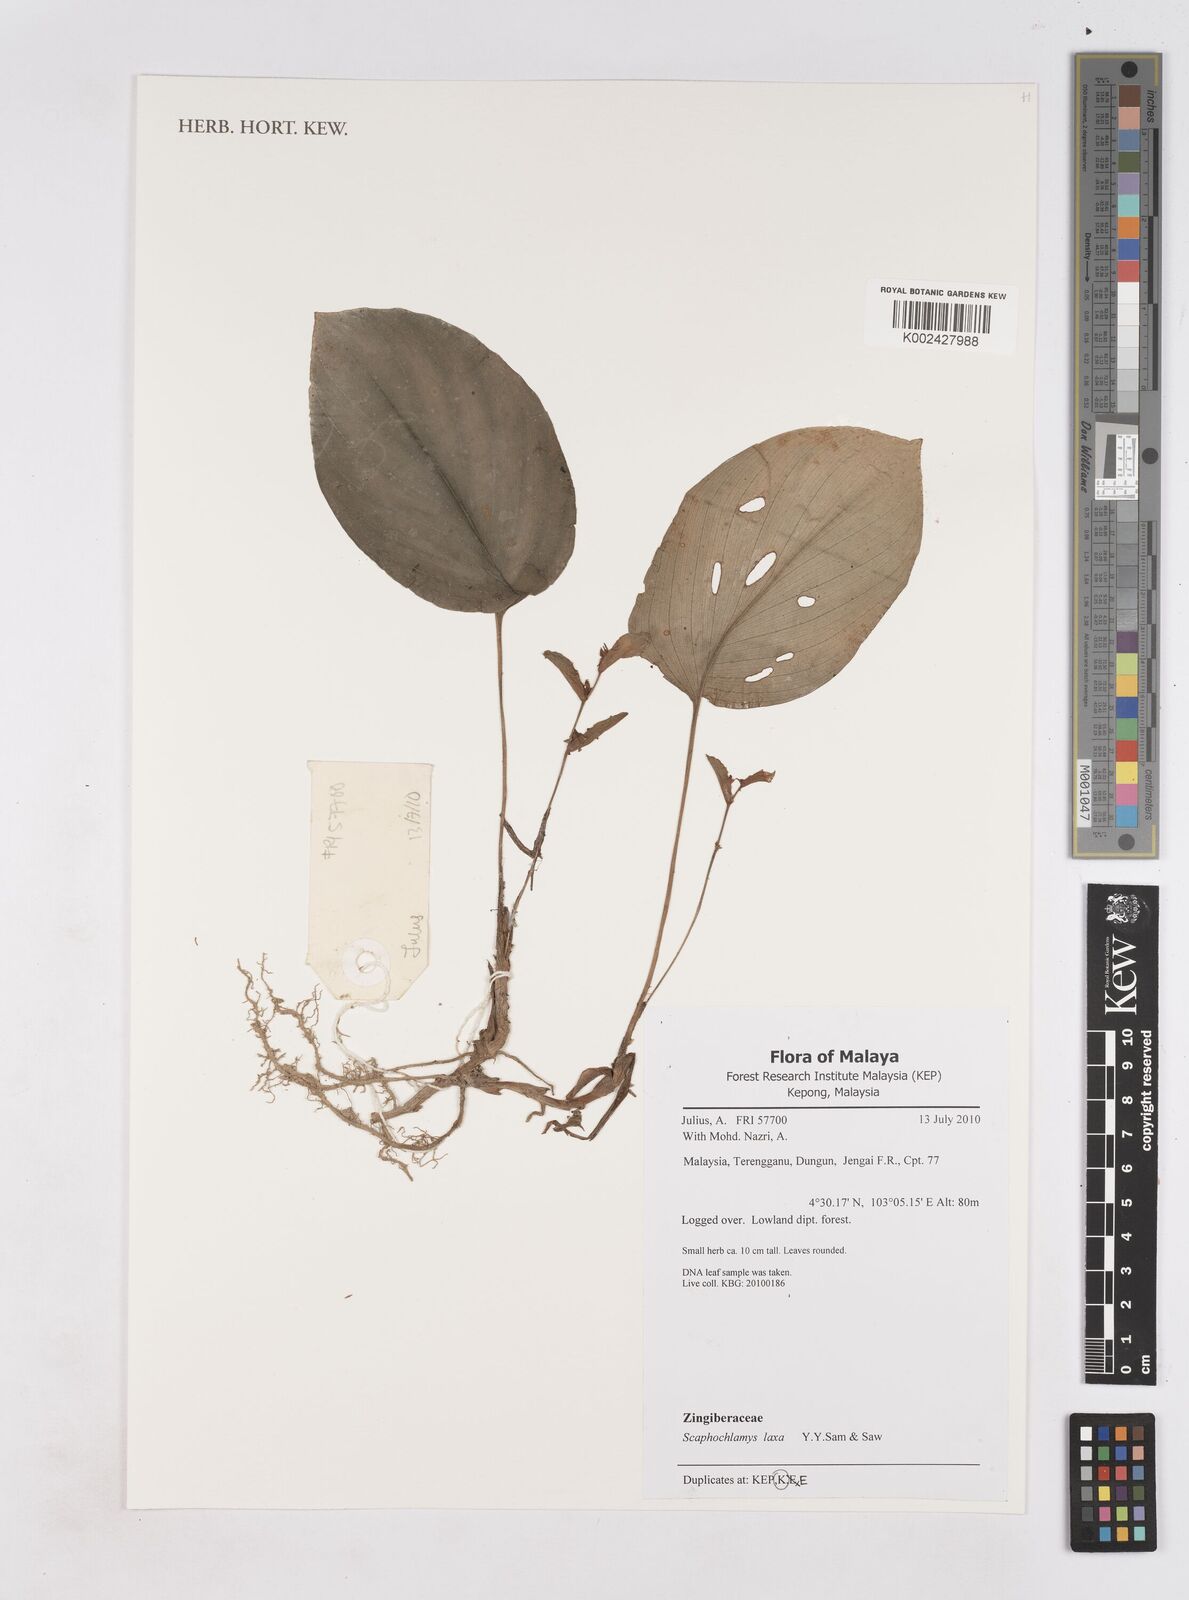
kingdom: Plantae
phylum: Tracheophyta
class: Liliopsida
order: Zingiberales
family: Zingiberaceae
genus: Scaphochlamys
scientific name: Scaphochlamys laxa
